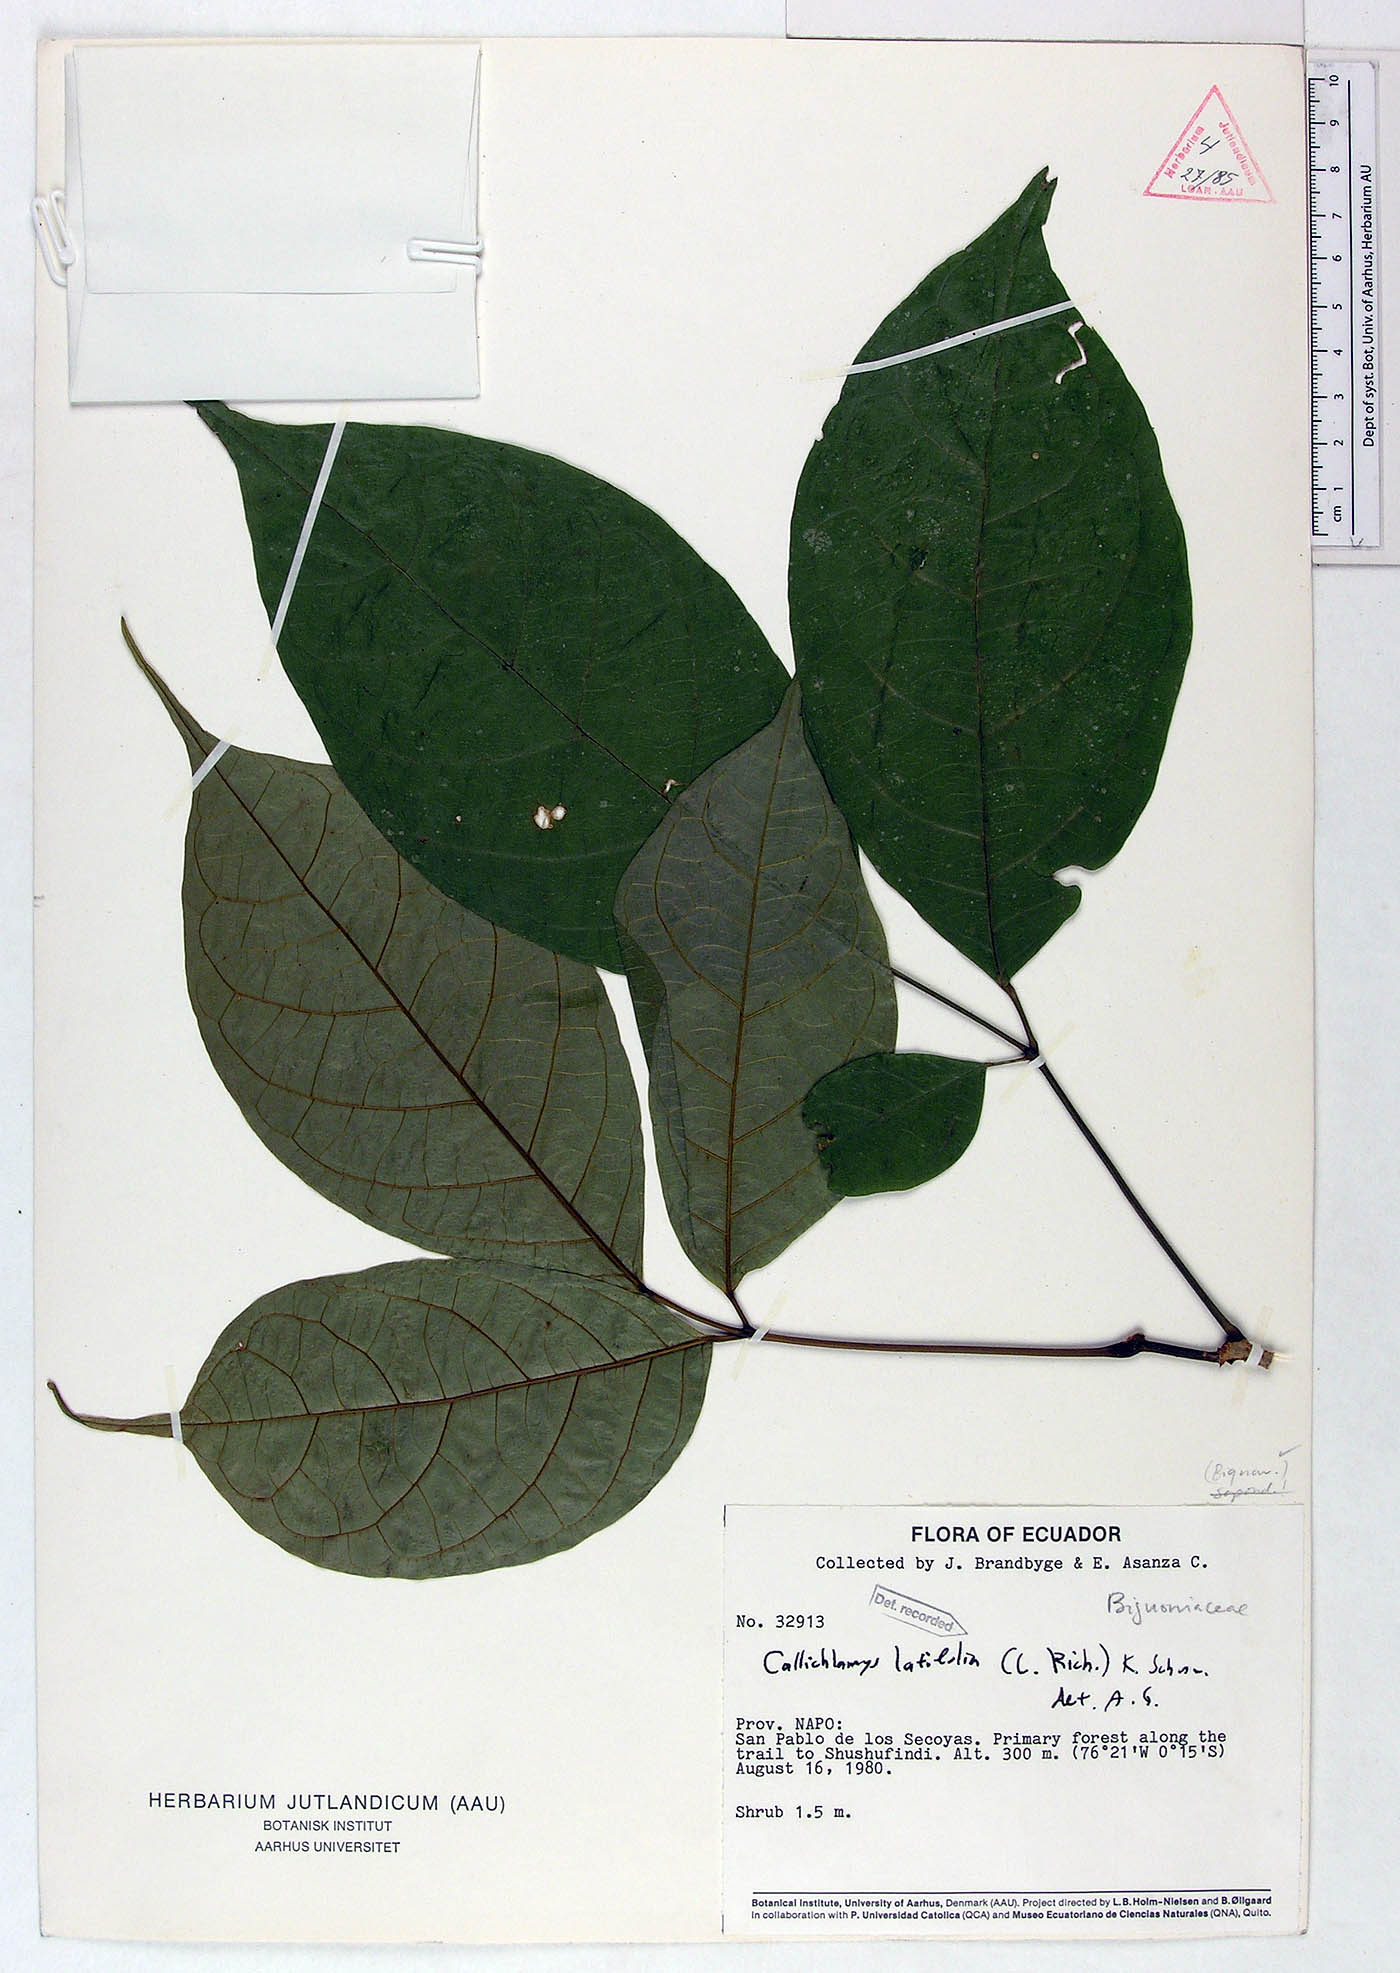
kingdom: Plantae
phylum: Tracheophyta
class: Magnoliopsida
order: Lamiales
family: Bignoniaceae
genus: Callichlamys
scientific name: Callichlamys latifolia
